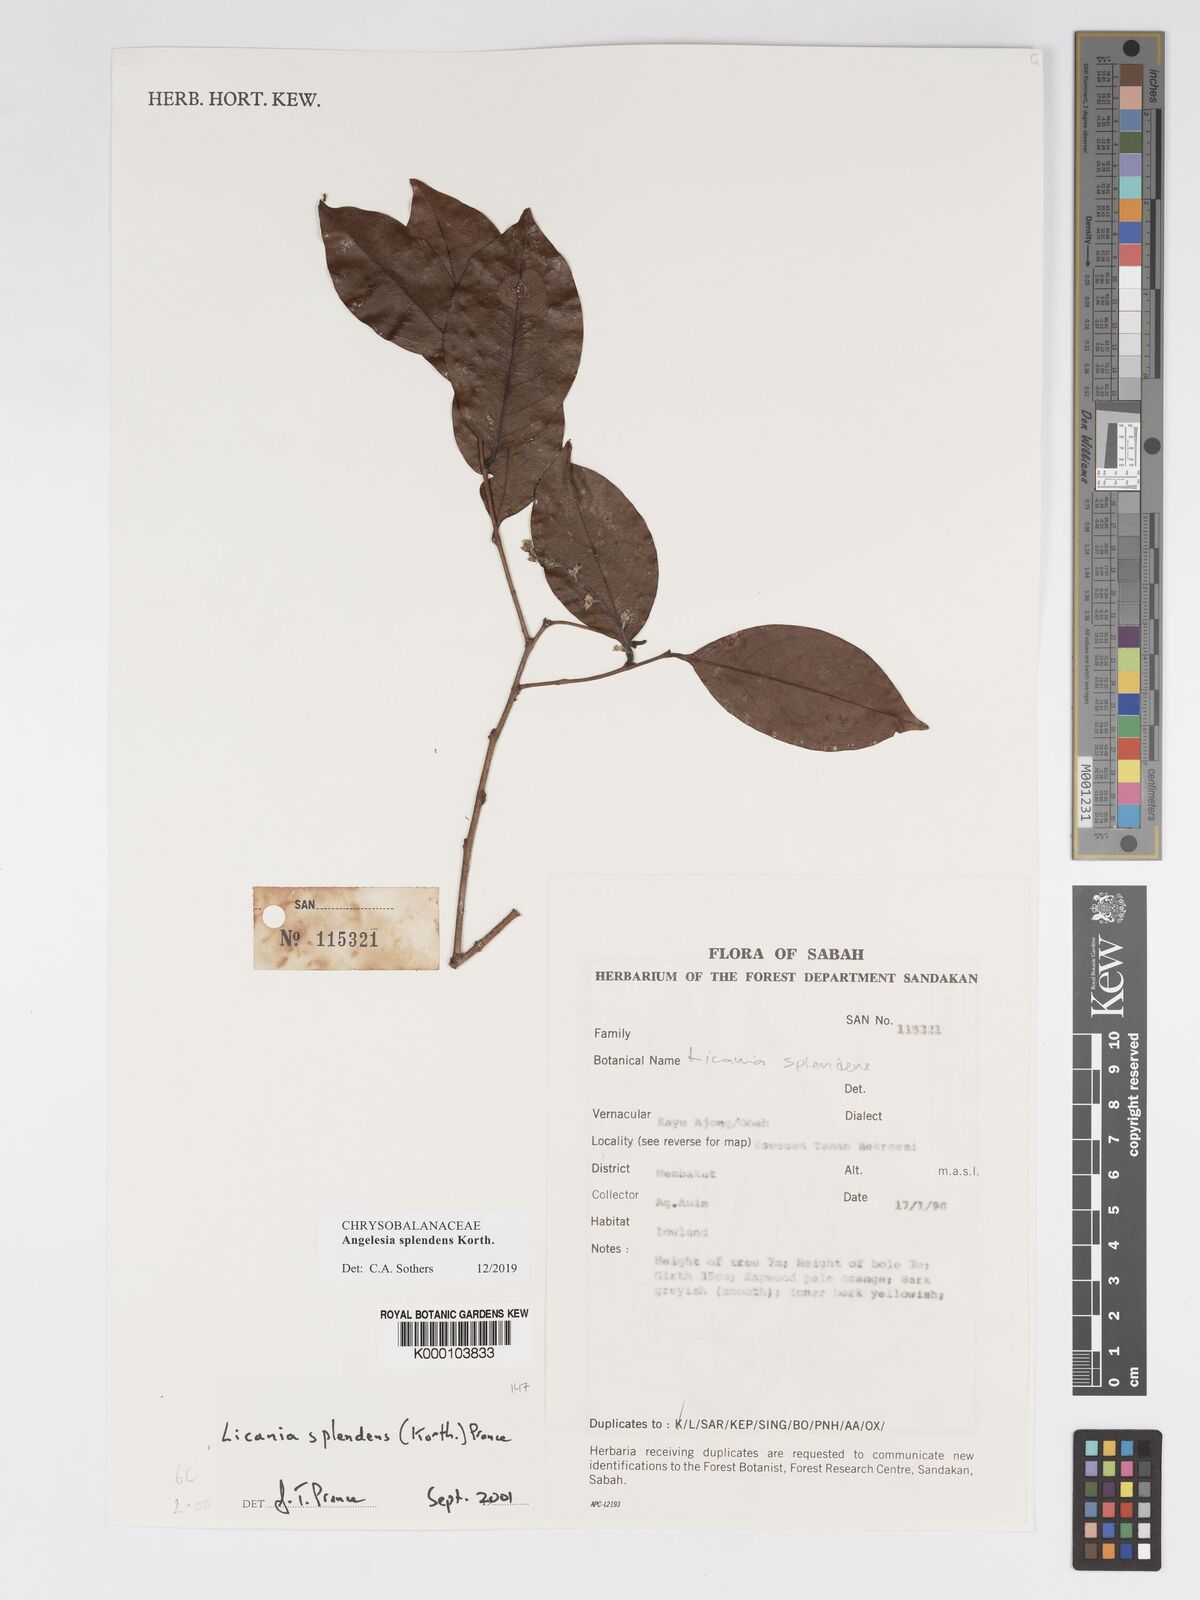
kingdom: Plantae
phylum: Tracheophyta
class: Magnoliopsida
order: Malpighiales
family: Chrysobalanaceae
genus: Angelesia
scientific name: Angelesia splendens
